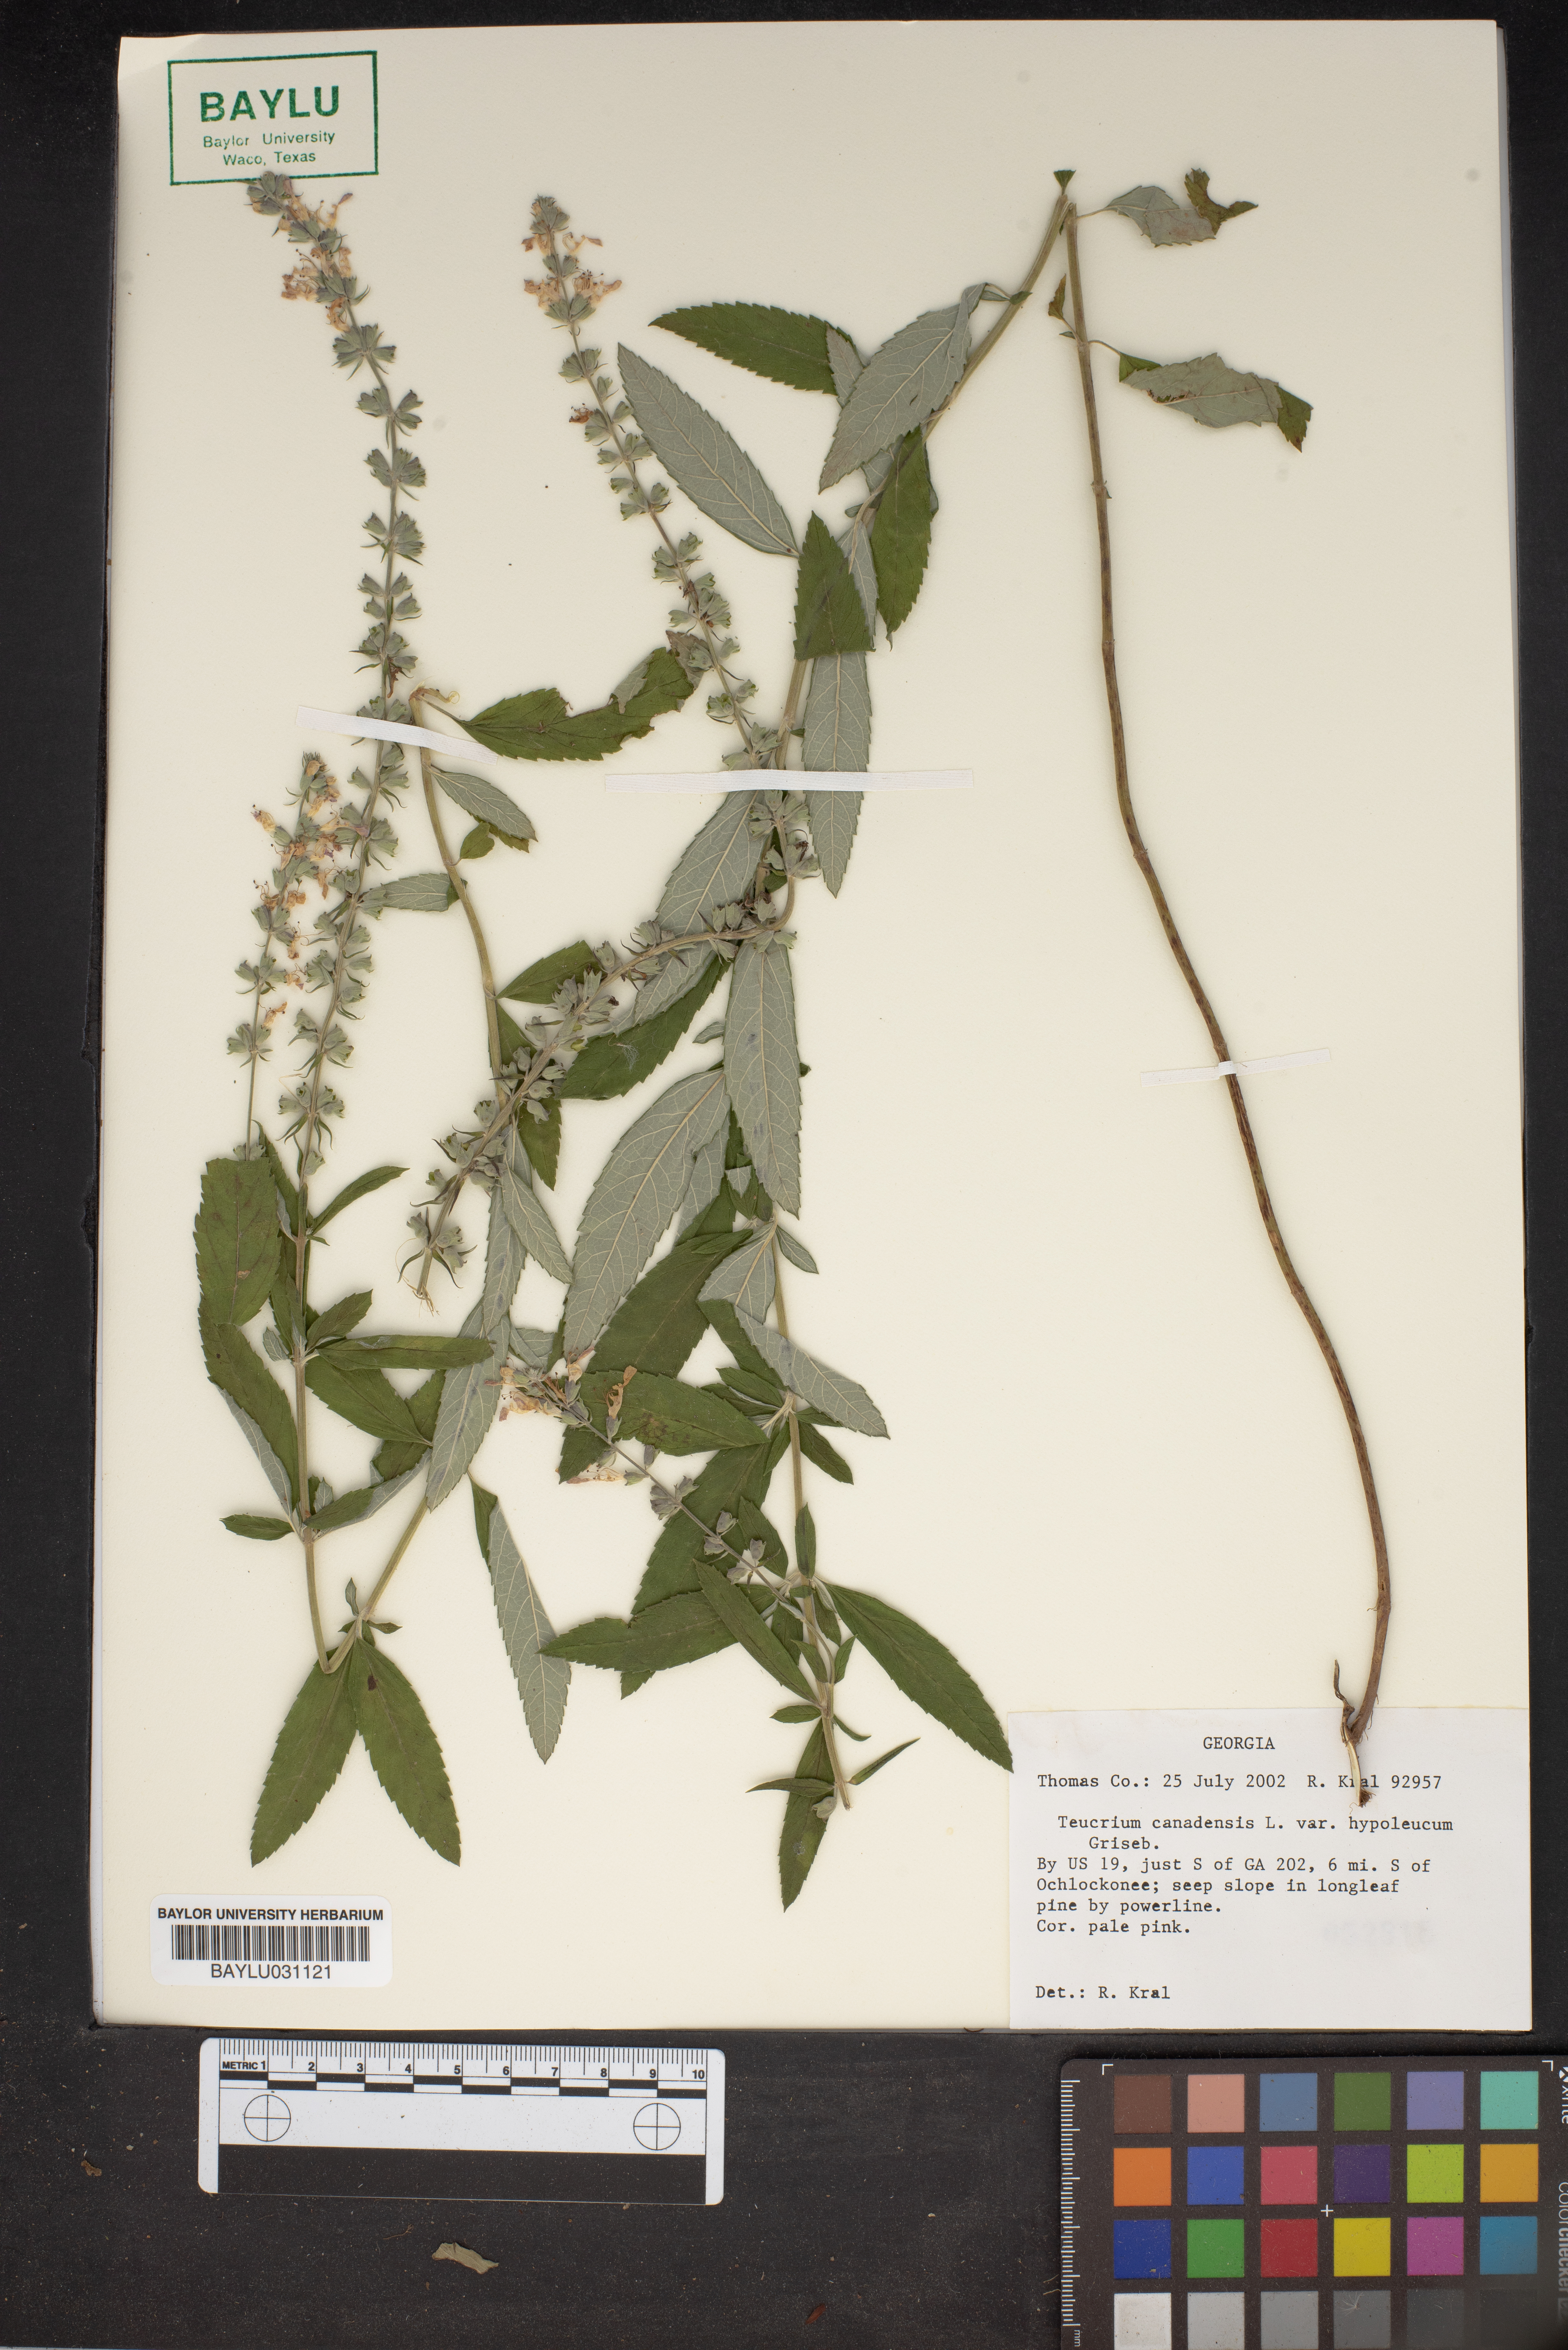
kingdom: Plantae
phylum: Tracheophyta
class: Magnoliopsida
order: Lamiales
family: Lamiaceae
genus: Teucrium
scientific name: Teucrium canadense
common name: American germander
